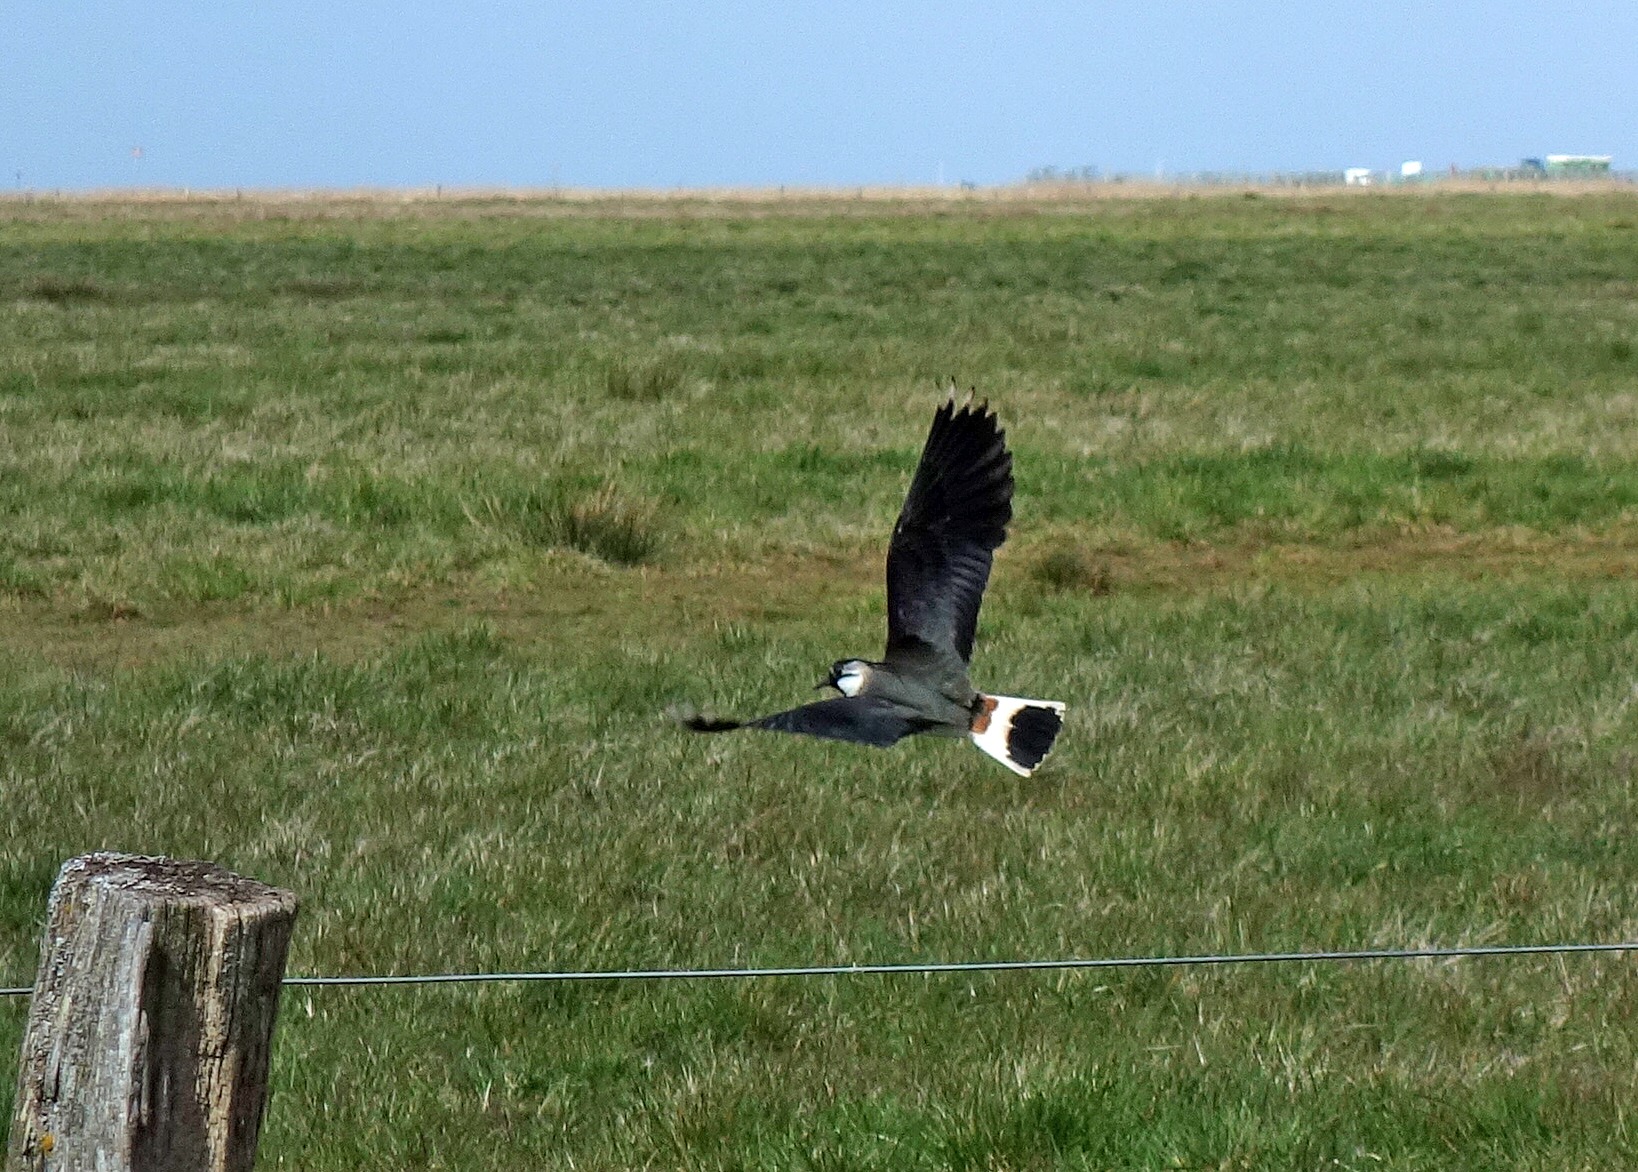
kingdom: Animalia
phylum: Chordata
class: Aves
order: Charadriiformes
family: Charadriidae
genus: Vanellus
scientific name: Vanellus vanellus
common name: Vibe
